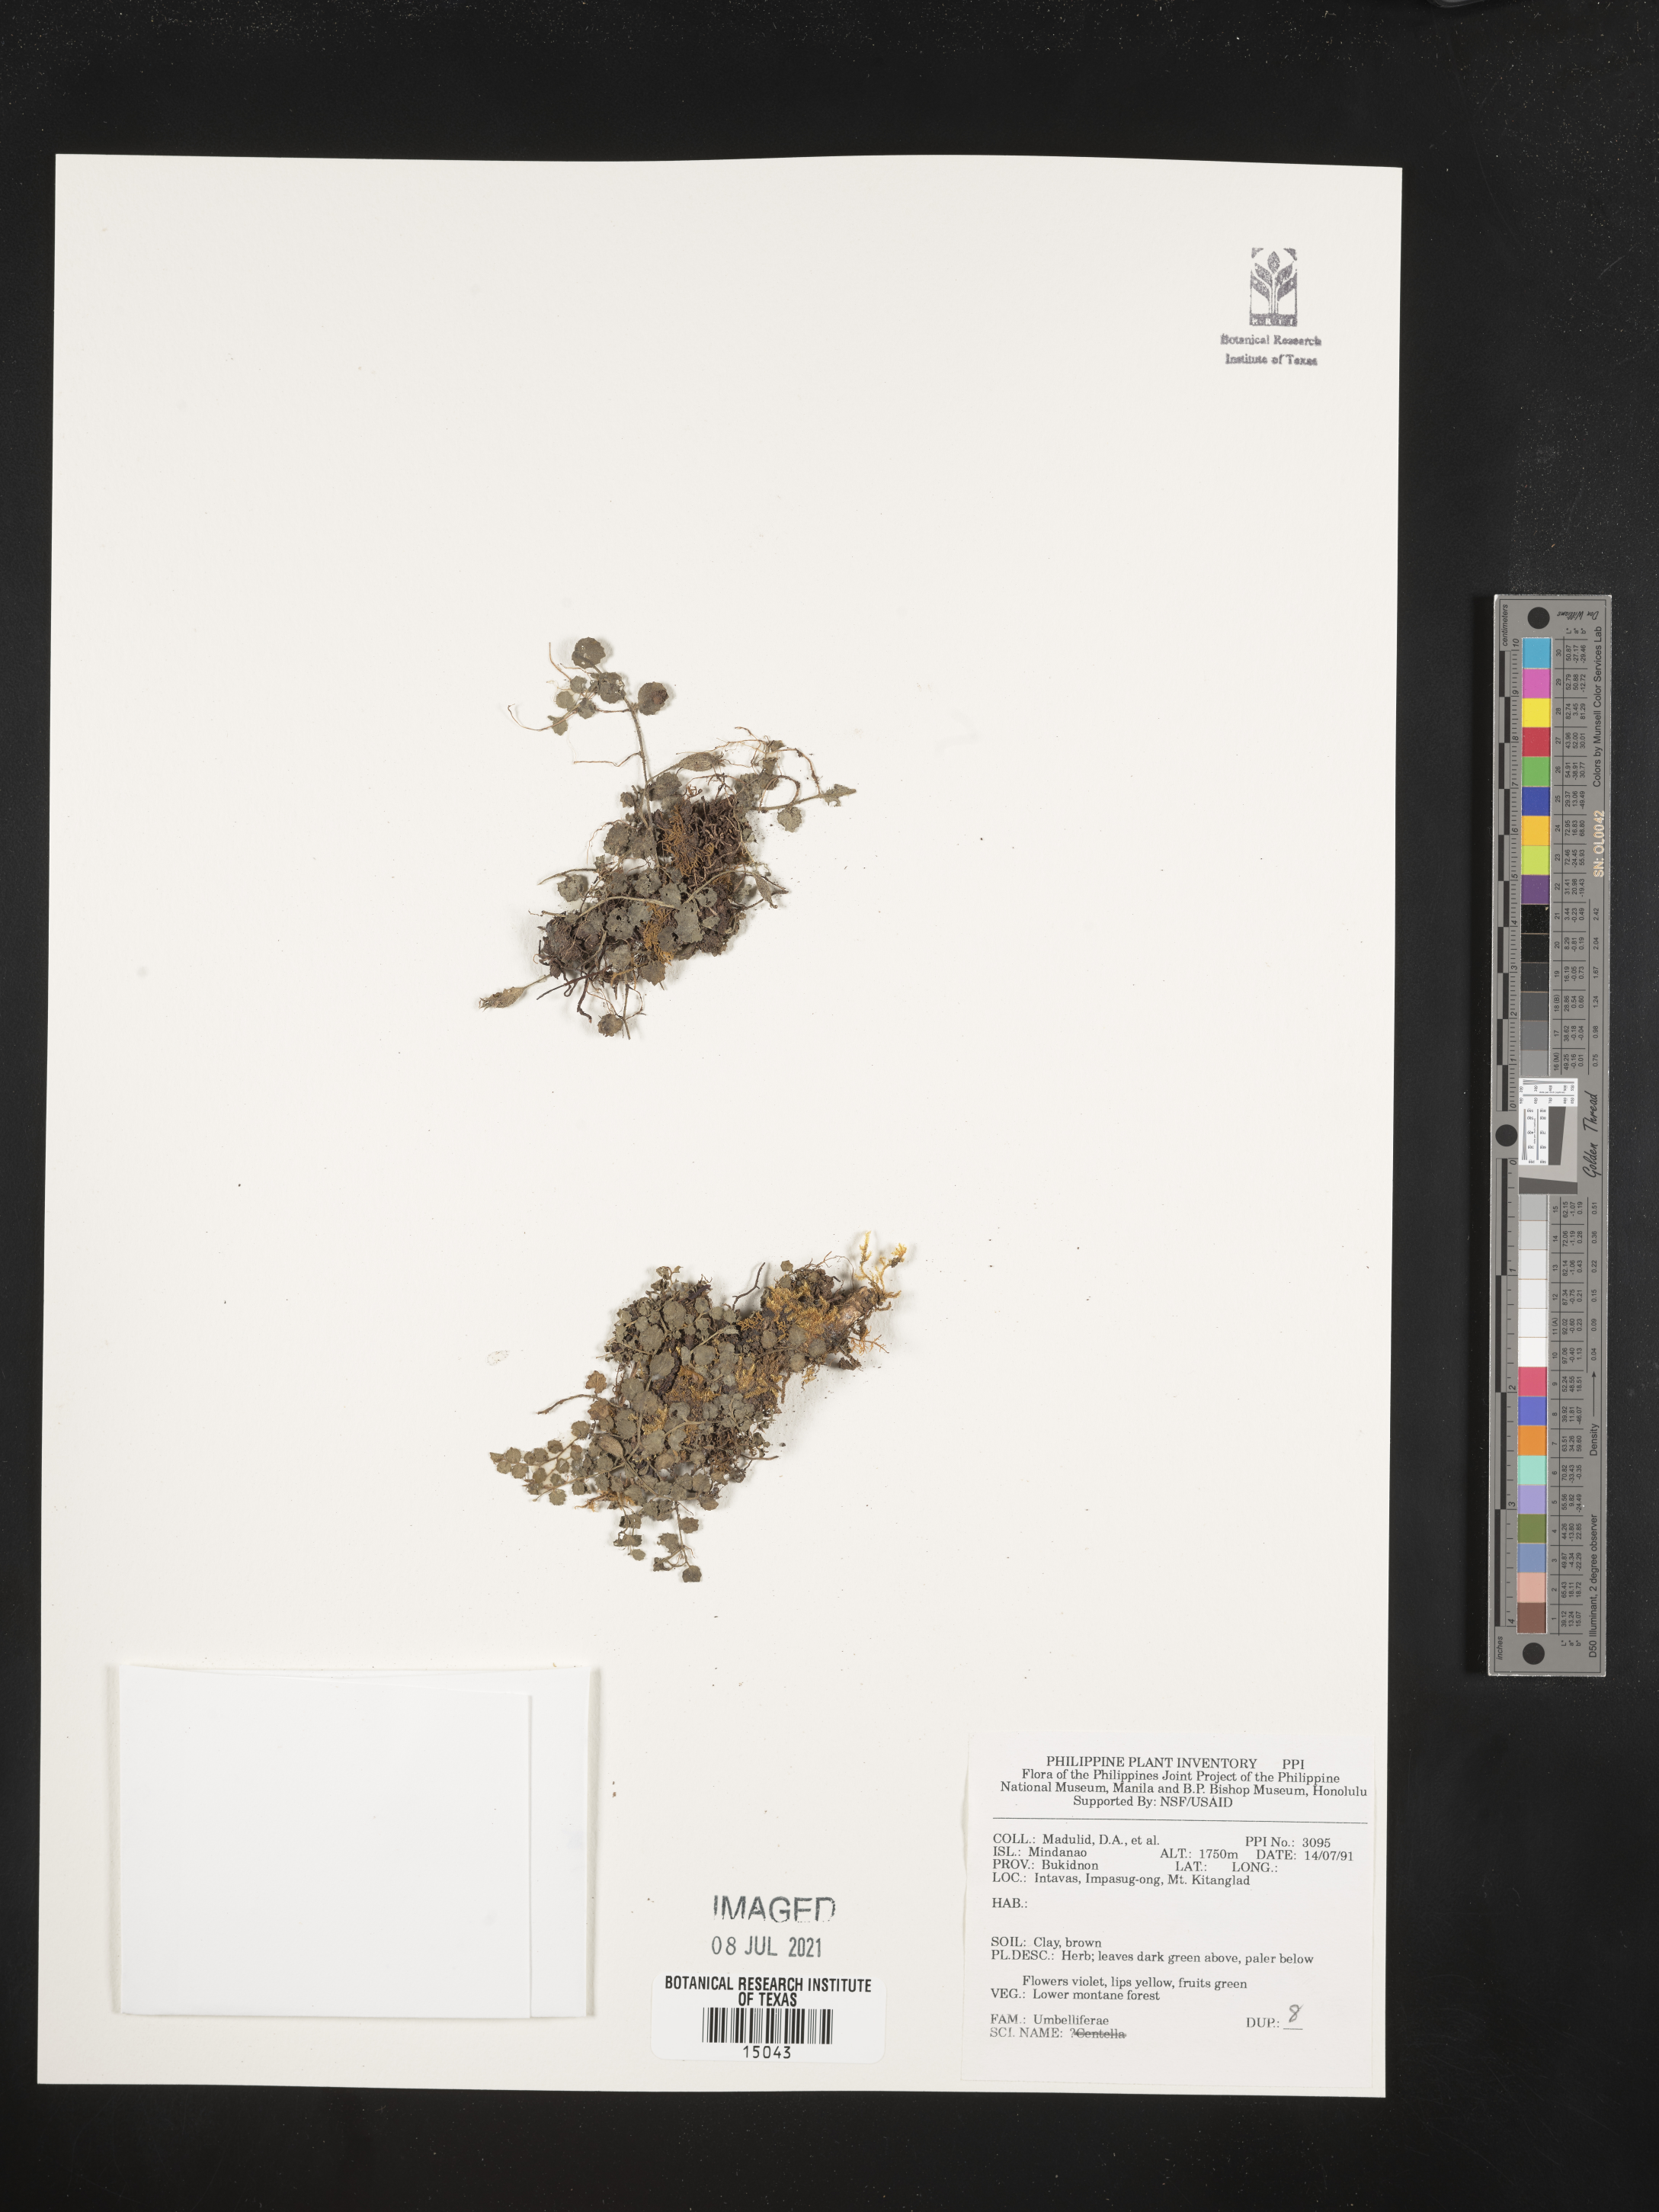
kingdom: Plantae
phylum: Tracheophyta
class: Magnoliopsida
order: Apiales
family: Apiaceae
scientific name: Apiaceae
